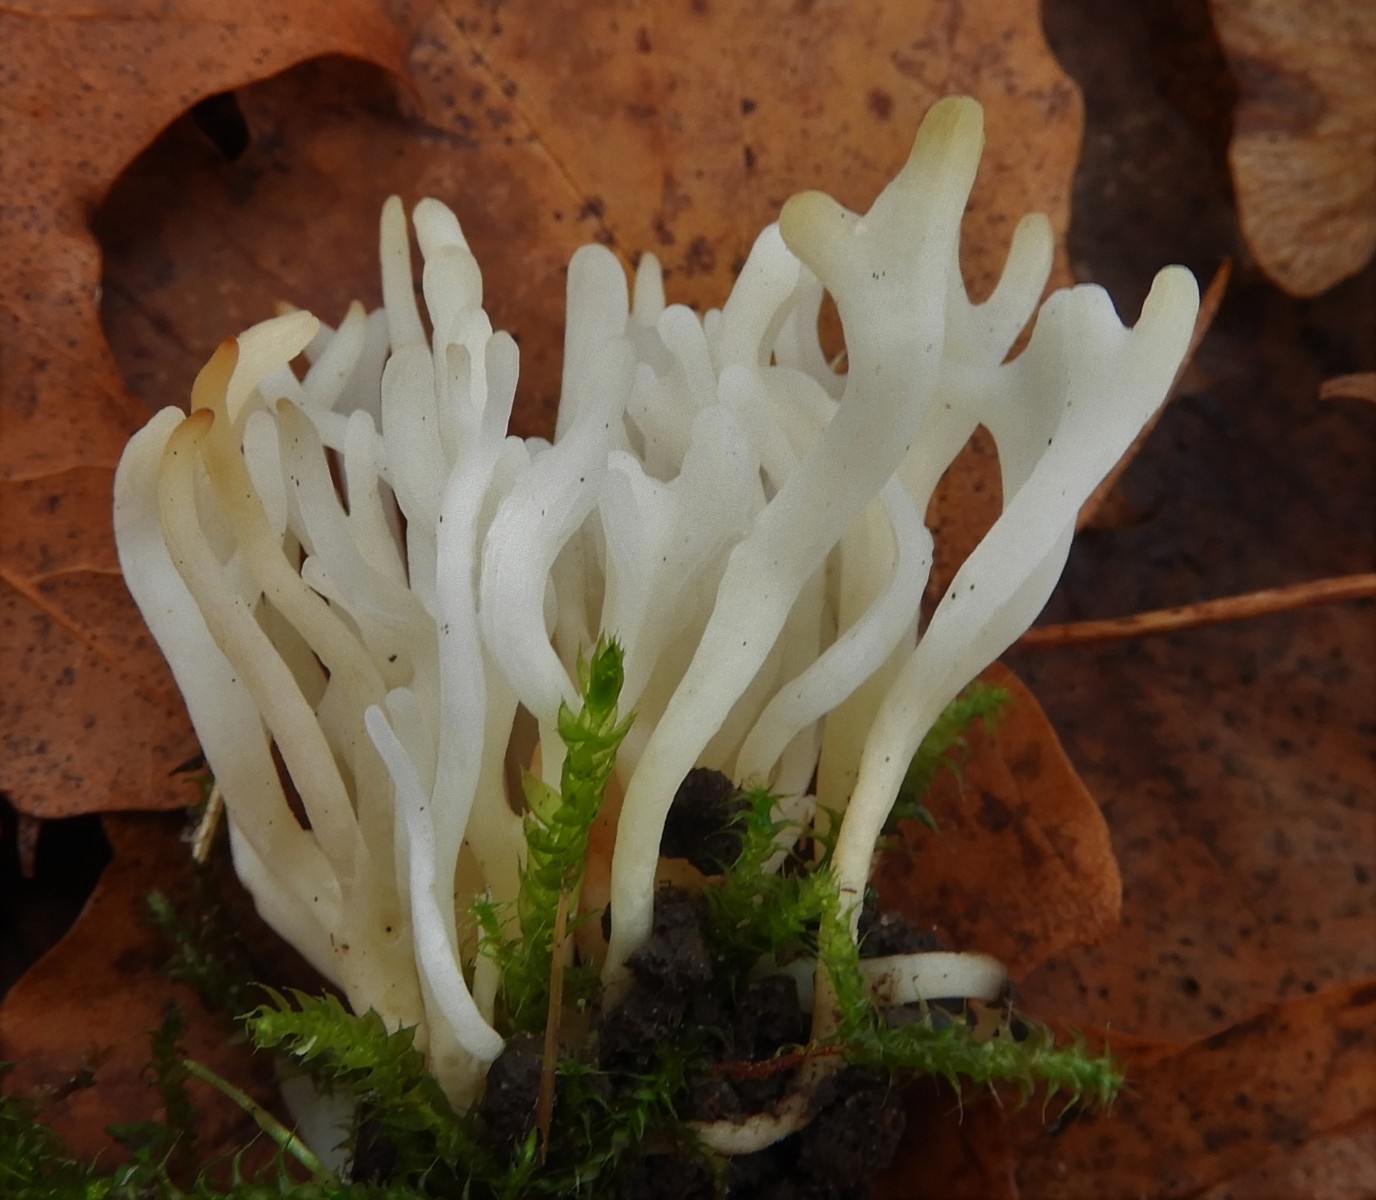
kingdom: Fungi
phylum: Basidiomycota
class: Agaricomycetes
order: Agaricales
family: Clavariaceae
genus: Clavaria
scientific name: Clavaria
